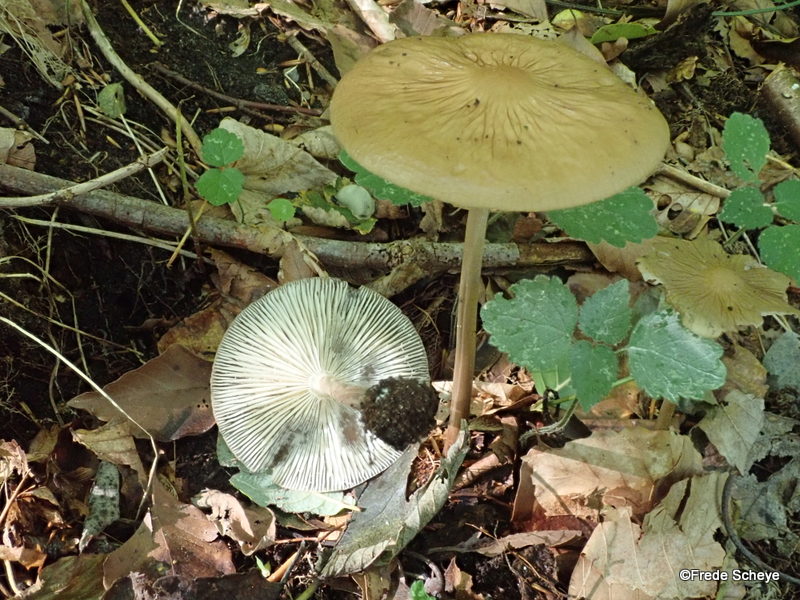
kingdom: Fungi
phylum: Basidiomycota
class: Agaricomycetes
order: Agaricales
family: Physalacriaceae
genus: Hymenopellis
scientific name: Hymenopellis radicata
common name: almindelig pælerodshat
